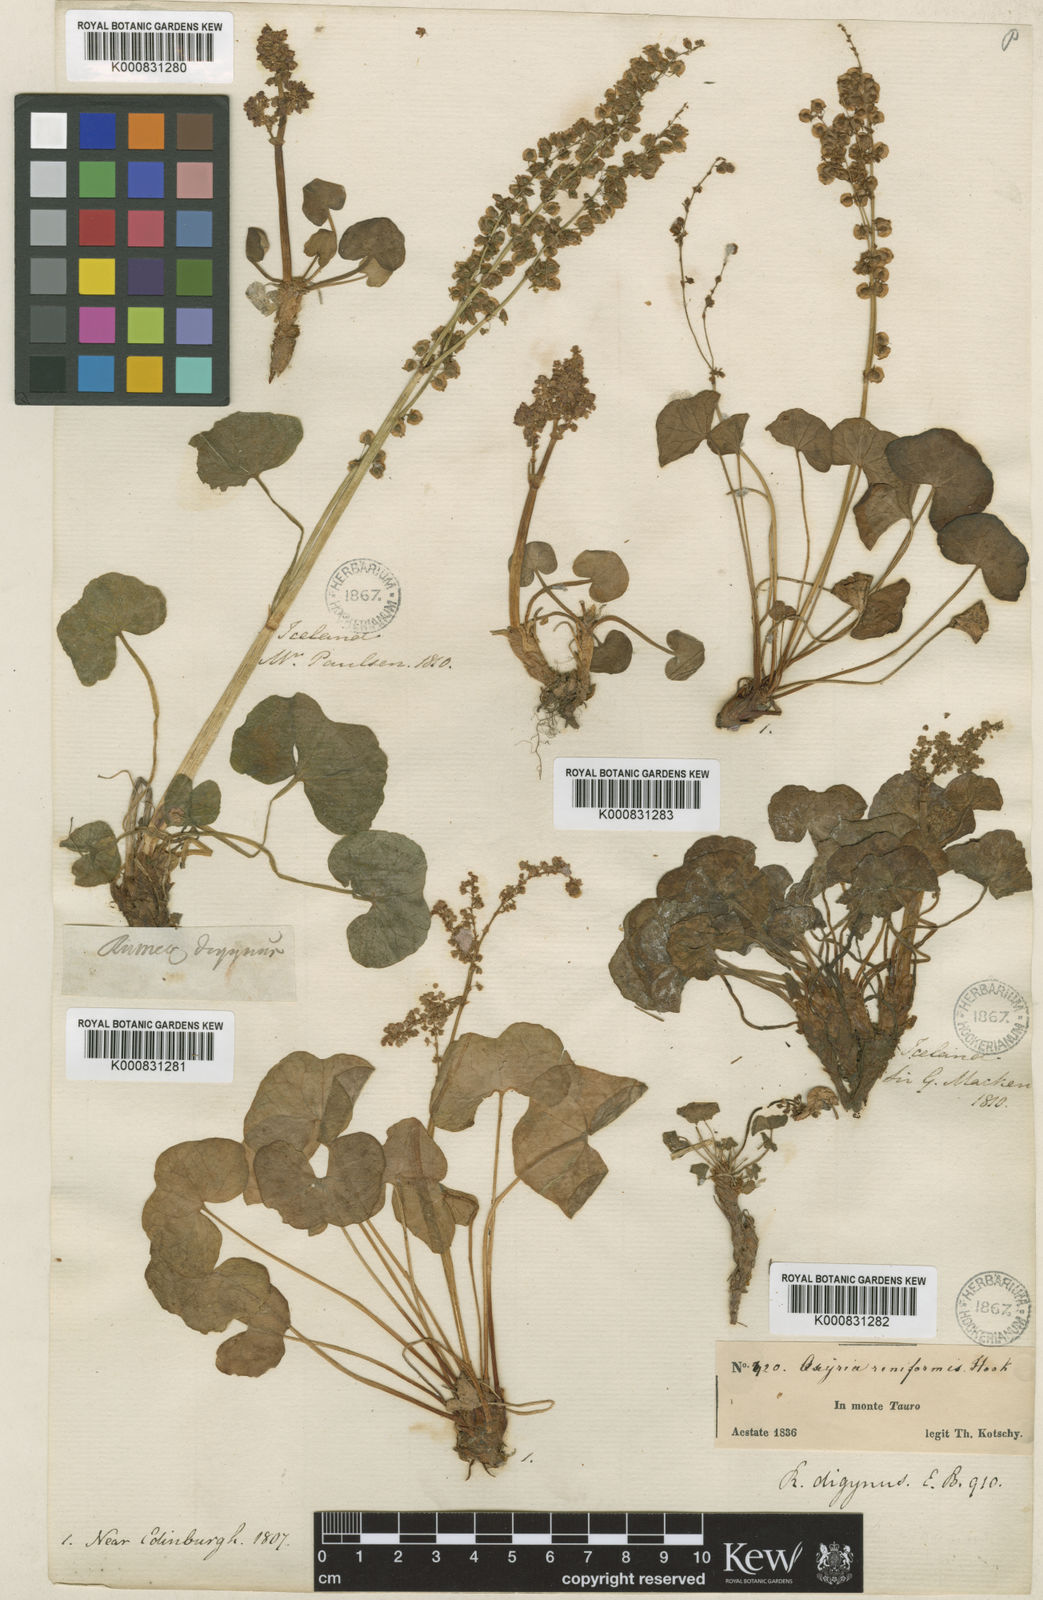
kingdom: Plantae
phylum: Tracheophyta
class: Magnoliopsida
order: Caryophyllales
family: Polygonaceae
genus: Oxyria
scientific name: Oxyria digyna
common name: Alpine mountain-sorrel
